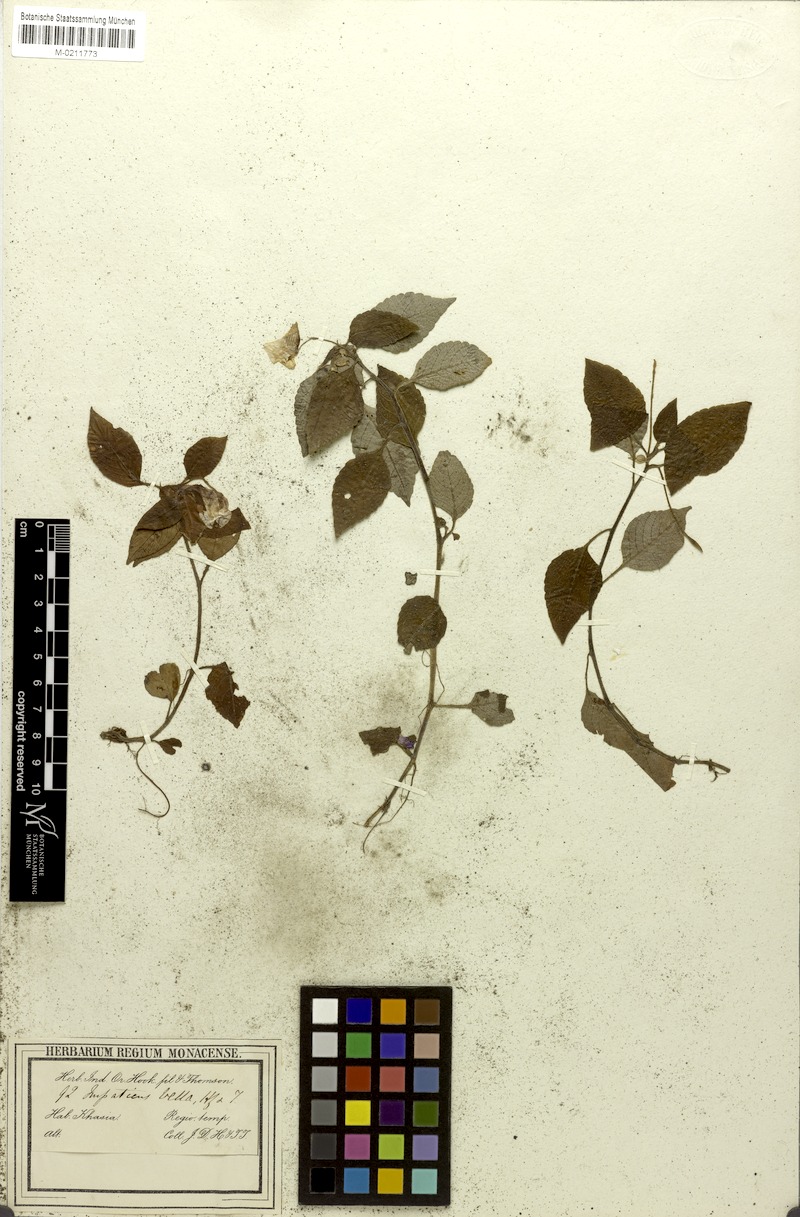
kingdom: Plantae
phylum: Tracheophyta
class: Magnoliopsida
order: Ericales
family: Balsaminaceae
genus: Impatiens
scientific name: Impatiens porrecta
